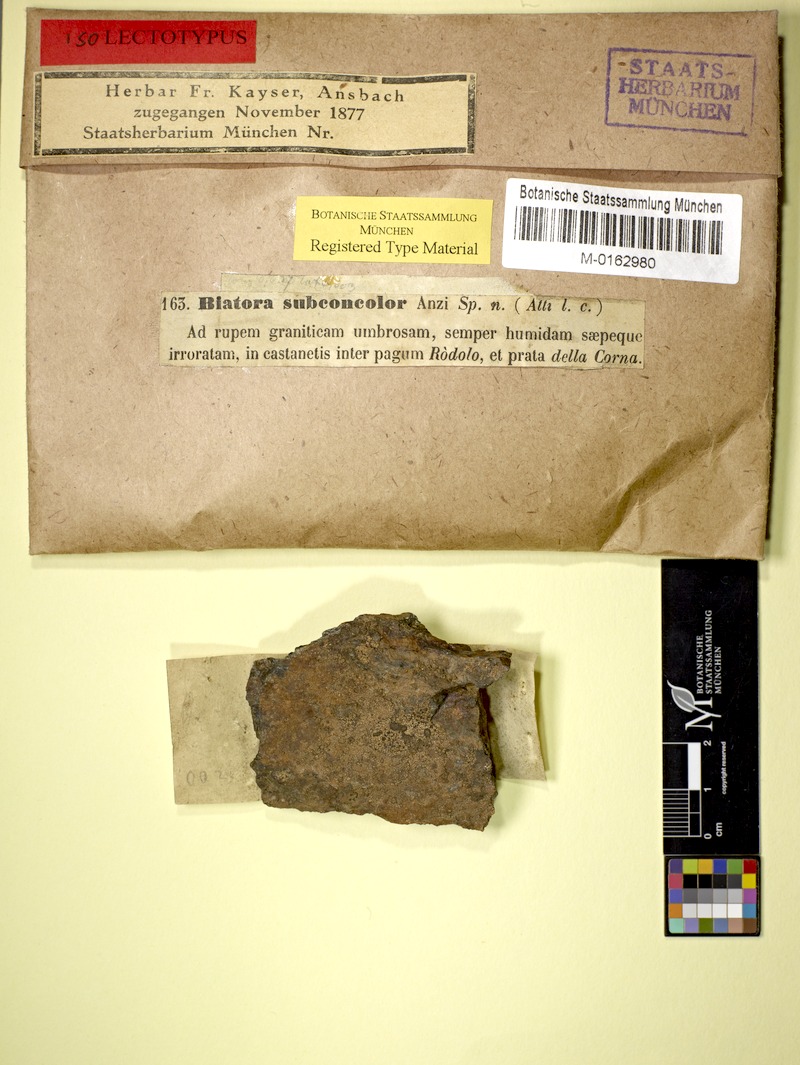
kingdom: Fungi
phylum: Ascomycota
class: Lecanoromycetes
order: Baeomycetales
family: Baeomycetaceae
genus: Parainoa
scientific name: Parainoa subconcolor
